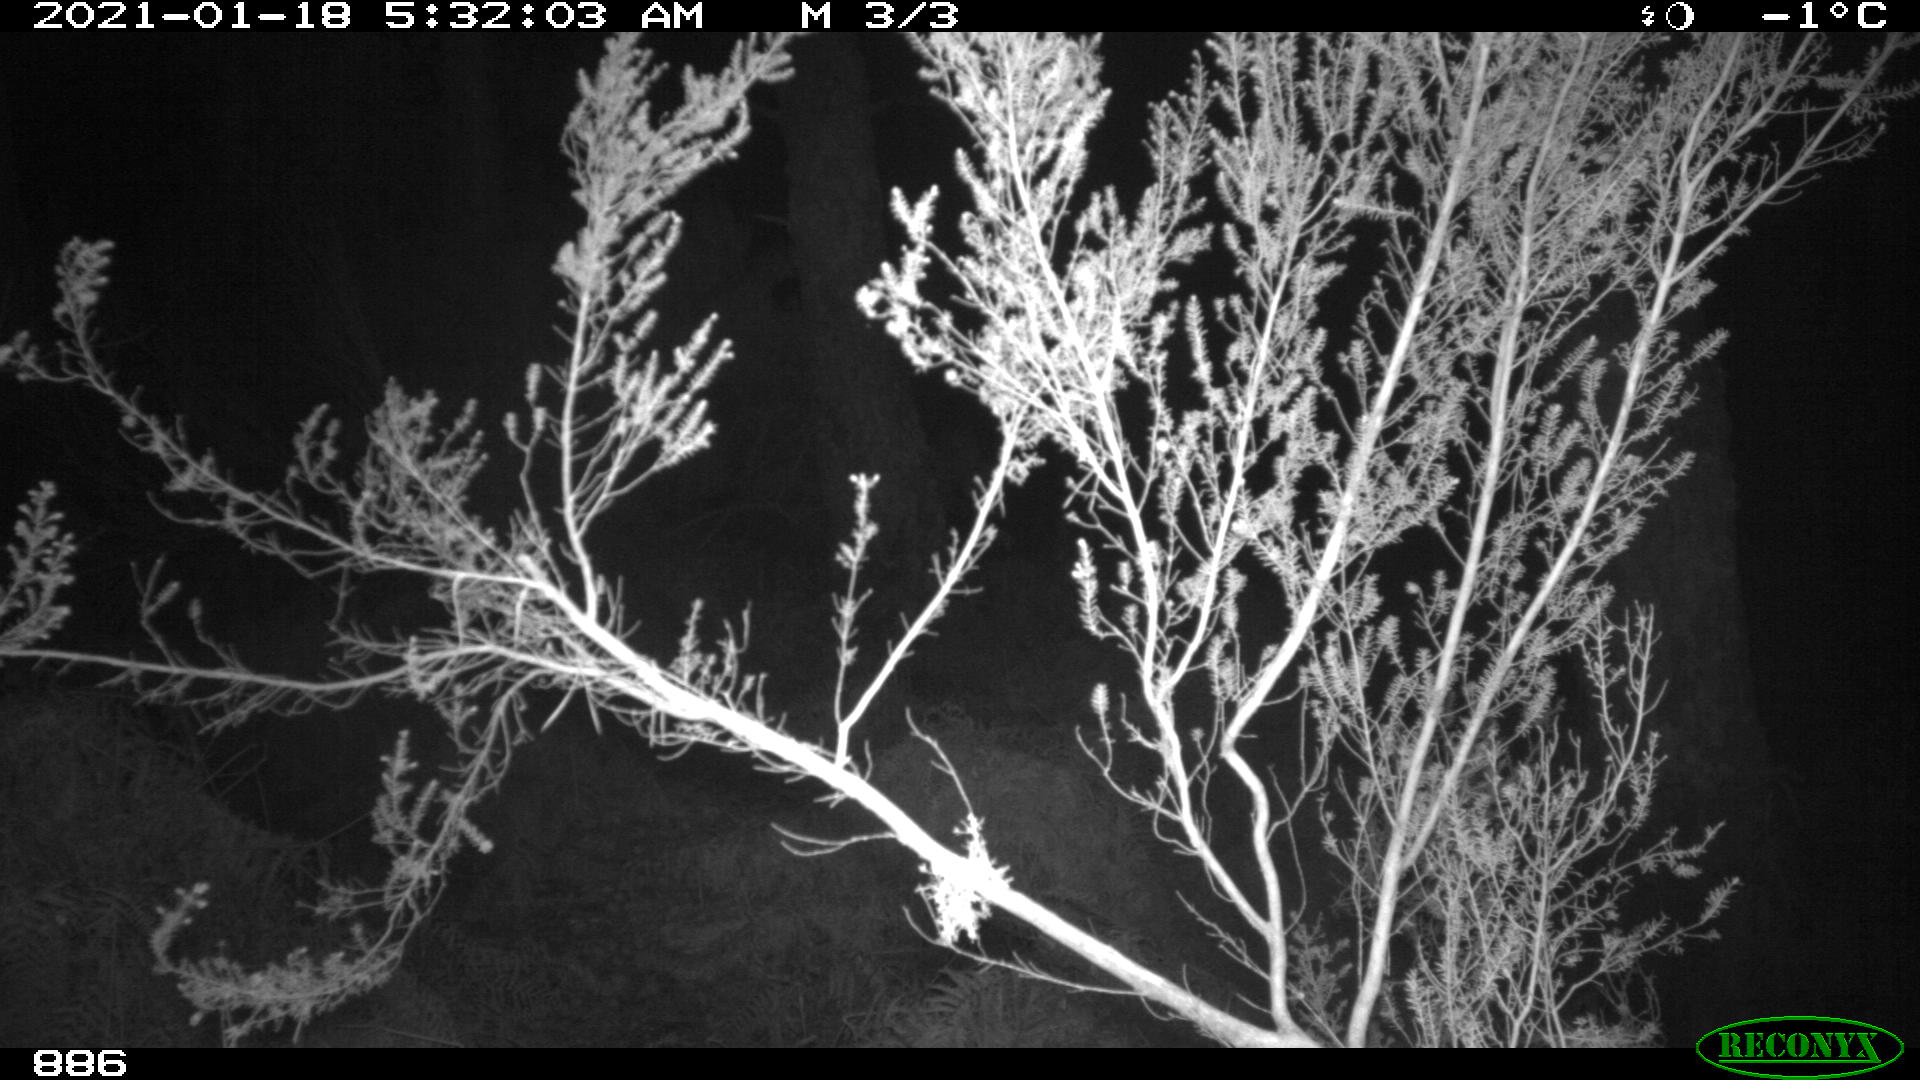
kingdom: Animalia
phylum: Chordata
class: Mammalia
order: Perissodactyla
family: Equidae
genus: Equus
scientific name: Equus caballus
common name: Horse
